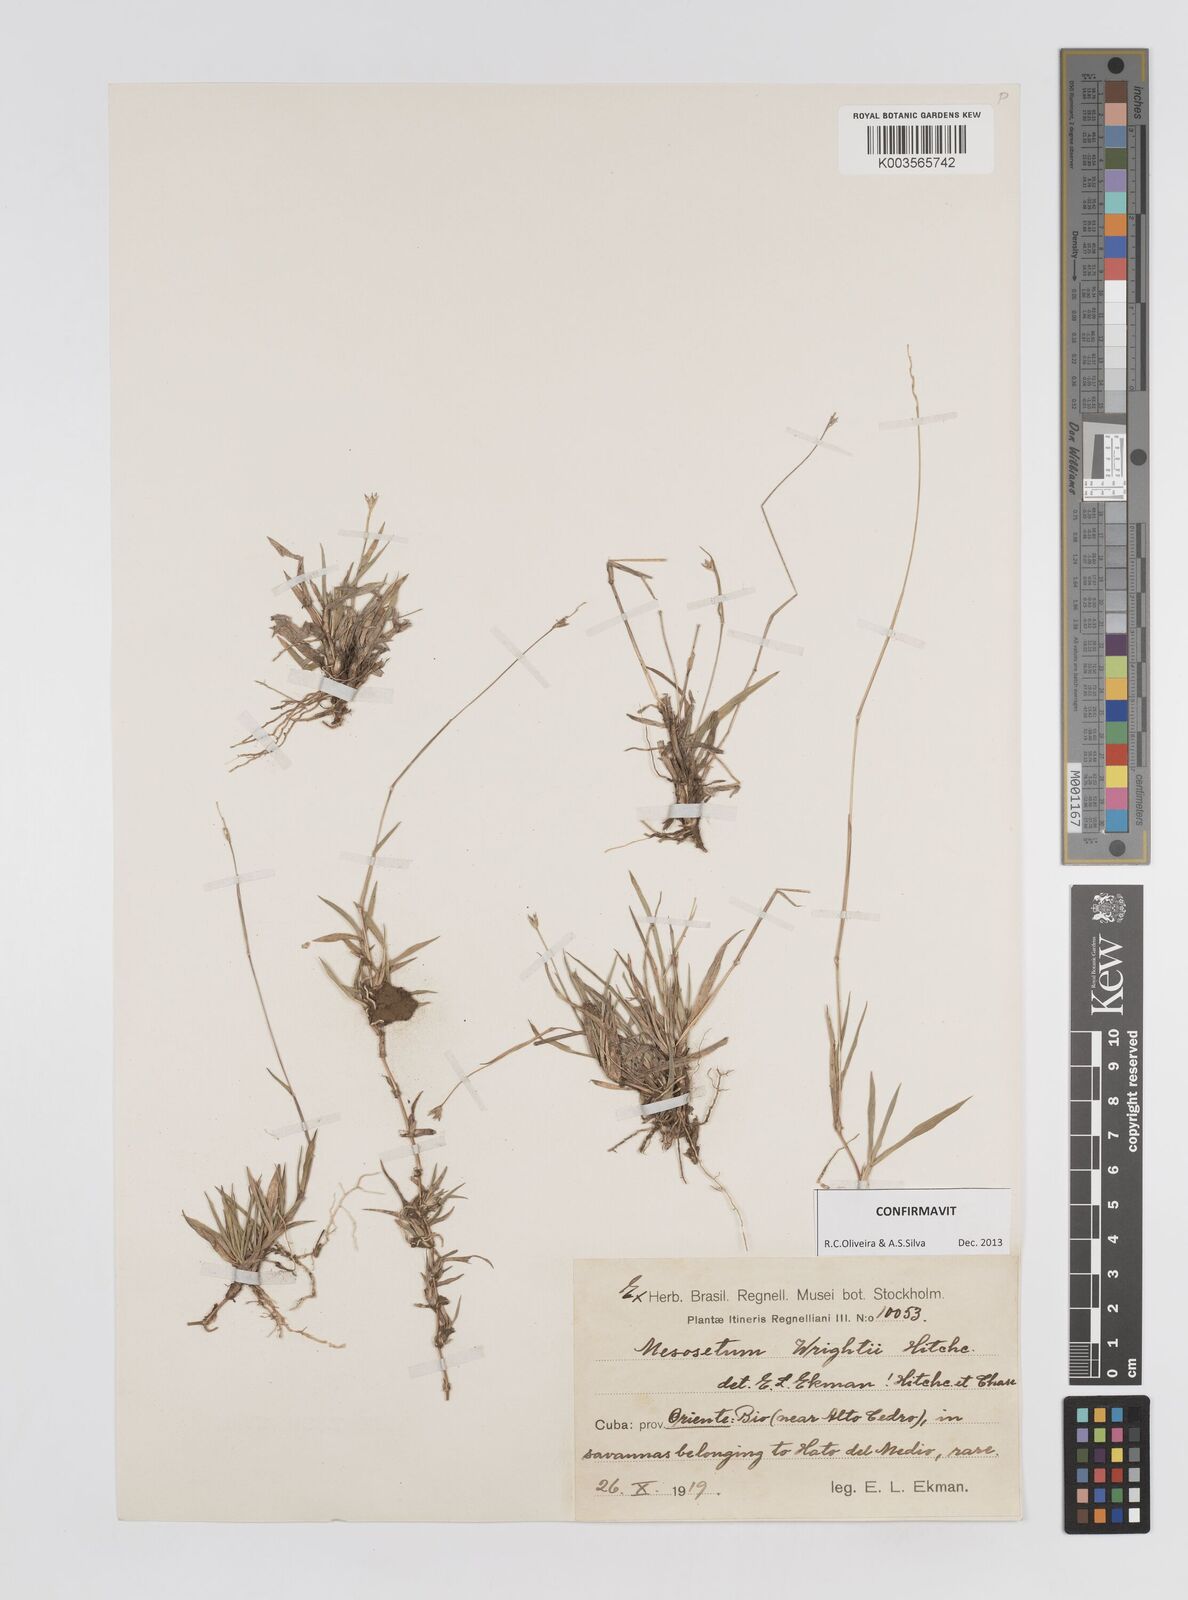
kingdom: Plantae
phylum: Tracheophyta
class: Liliopsida
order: Poales
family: Poaceae
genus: Mesosetum
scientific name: Mesosetum wrightii
